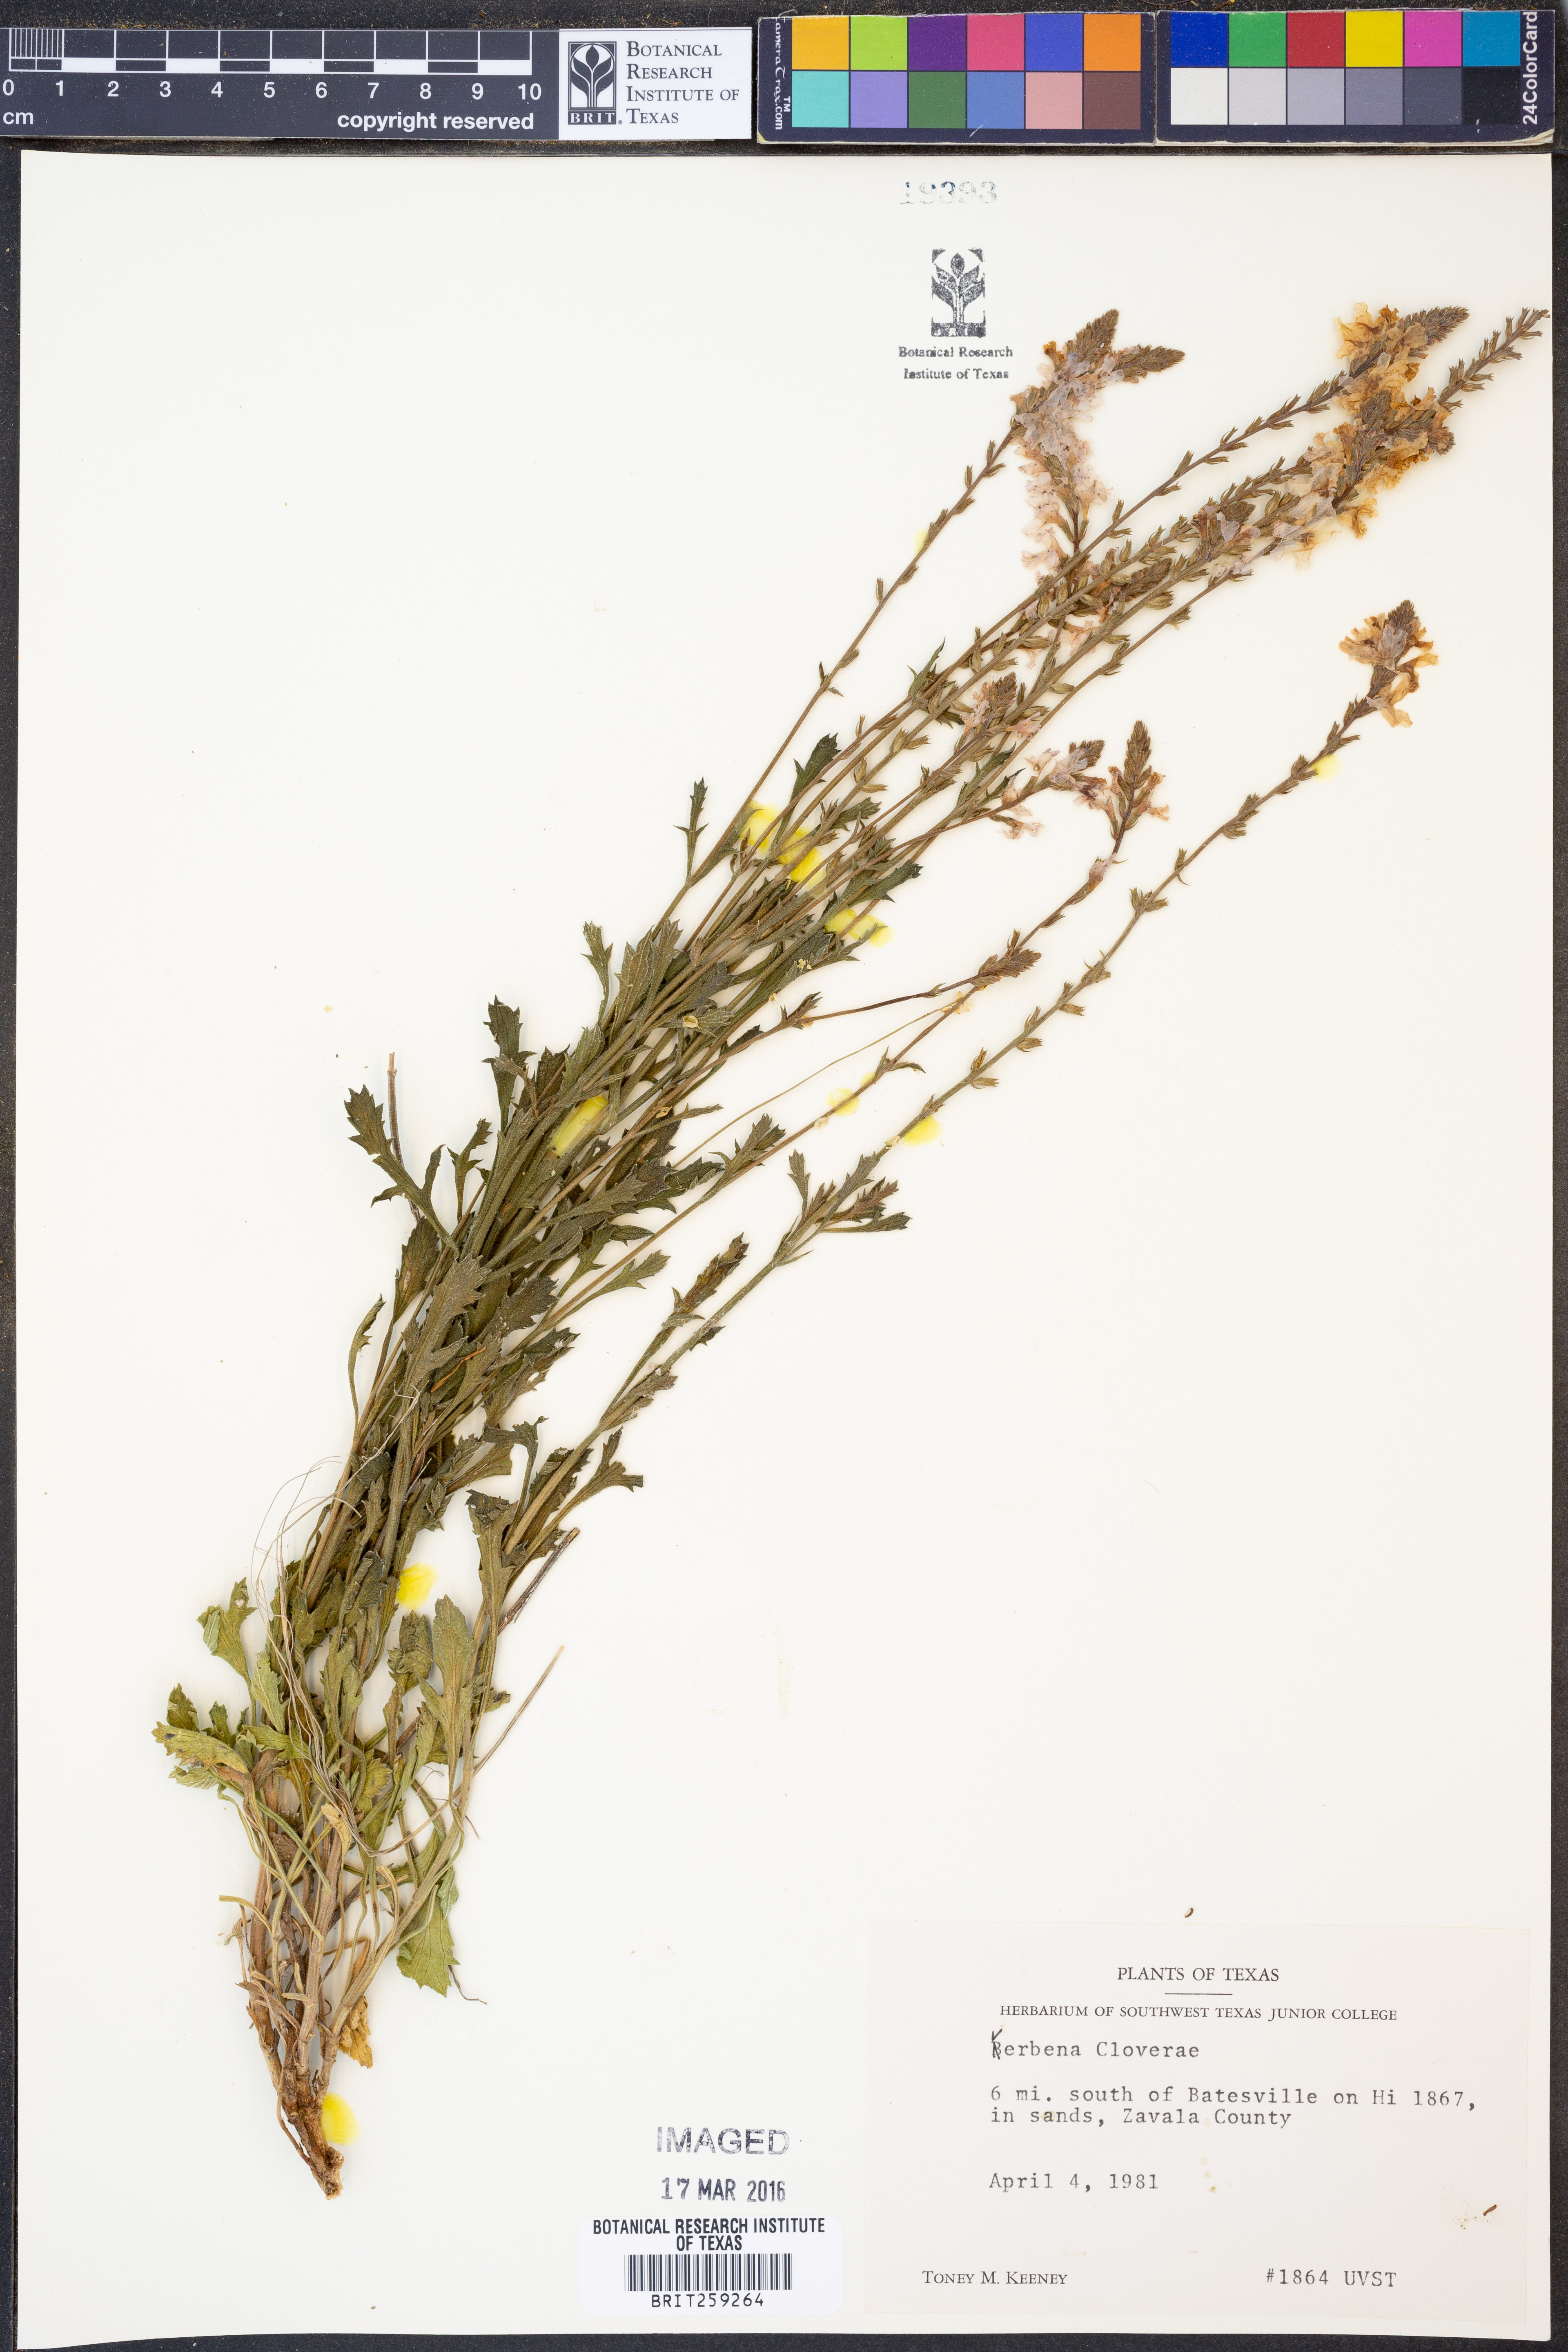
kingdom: Plantae
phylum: Tracheophyta
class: Magnoliopsida
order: Lamiales
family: Verbenaceae
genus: Verbena
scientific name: Verbena cloverae
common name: Clover's vervain
